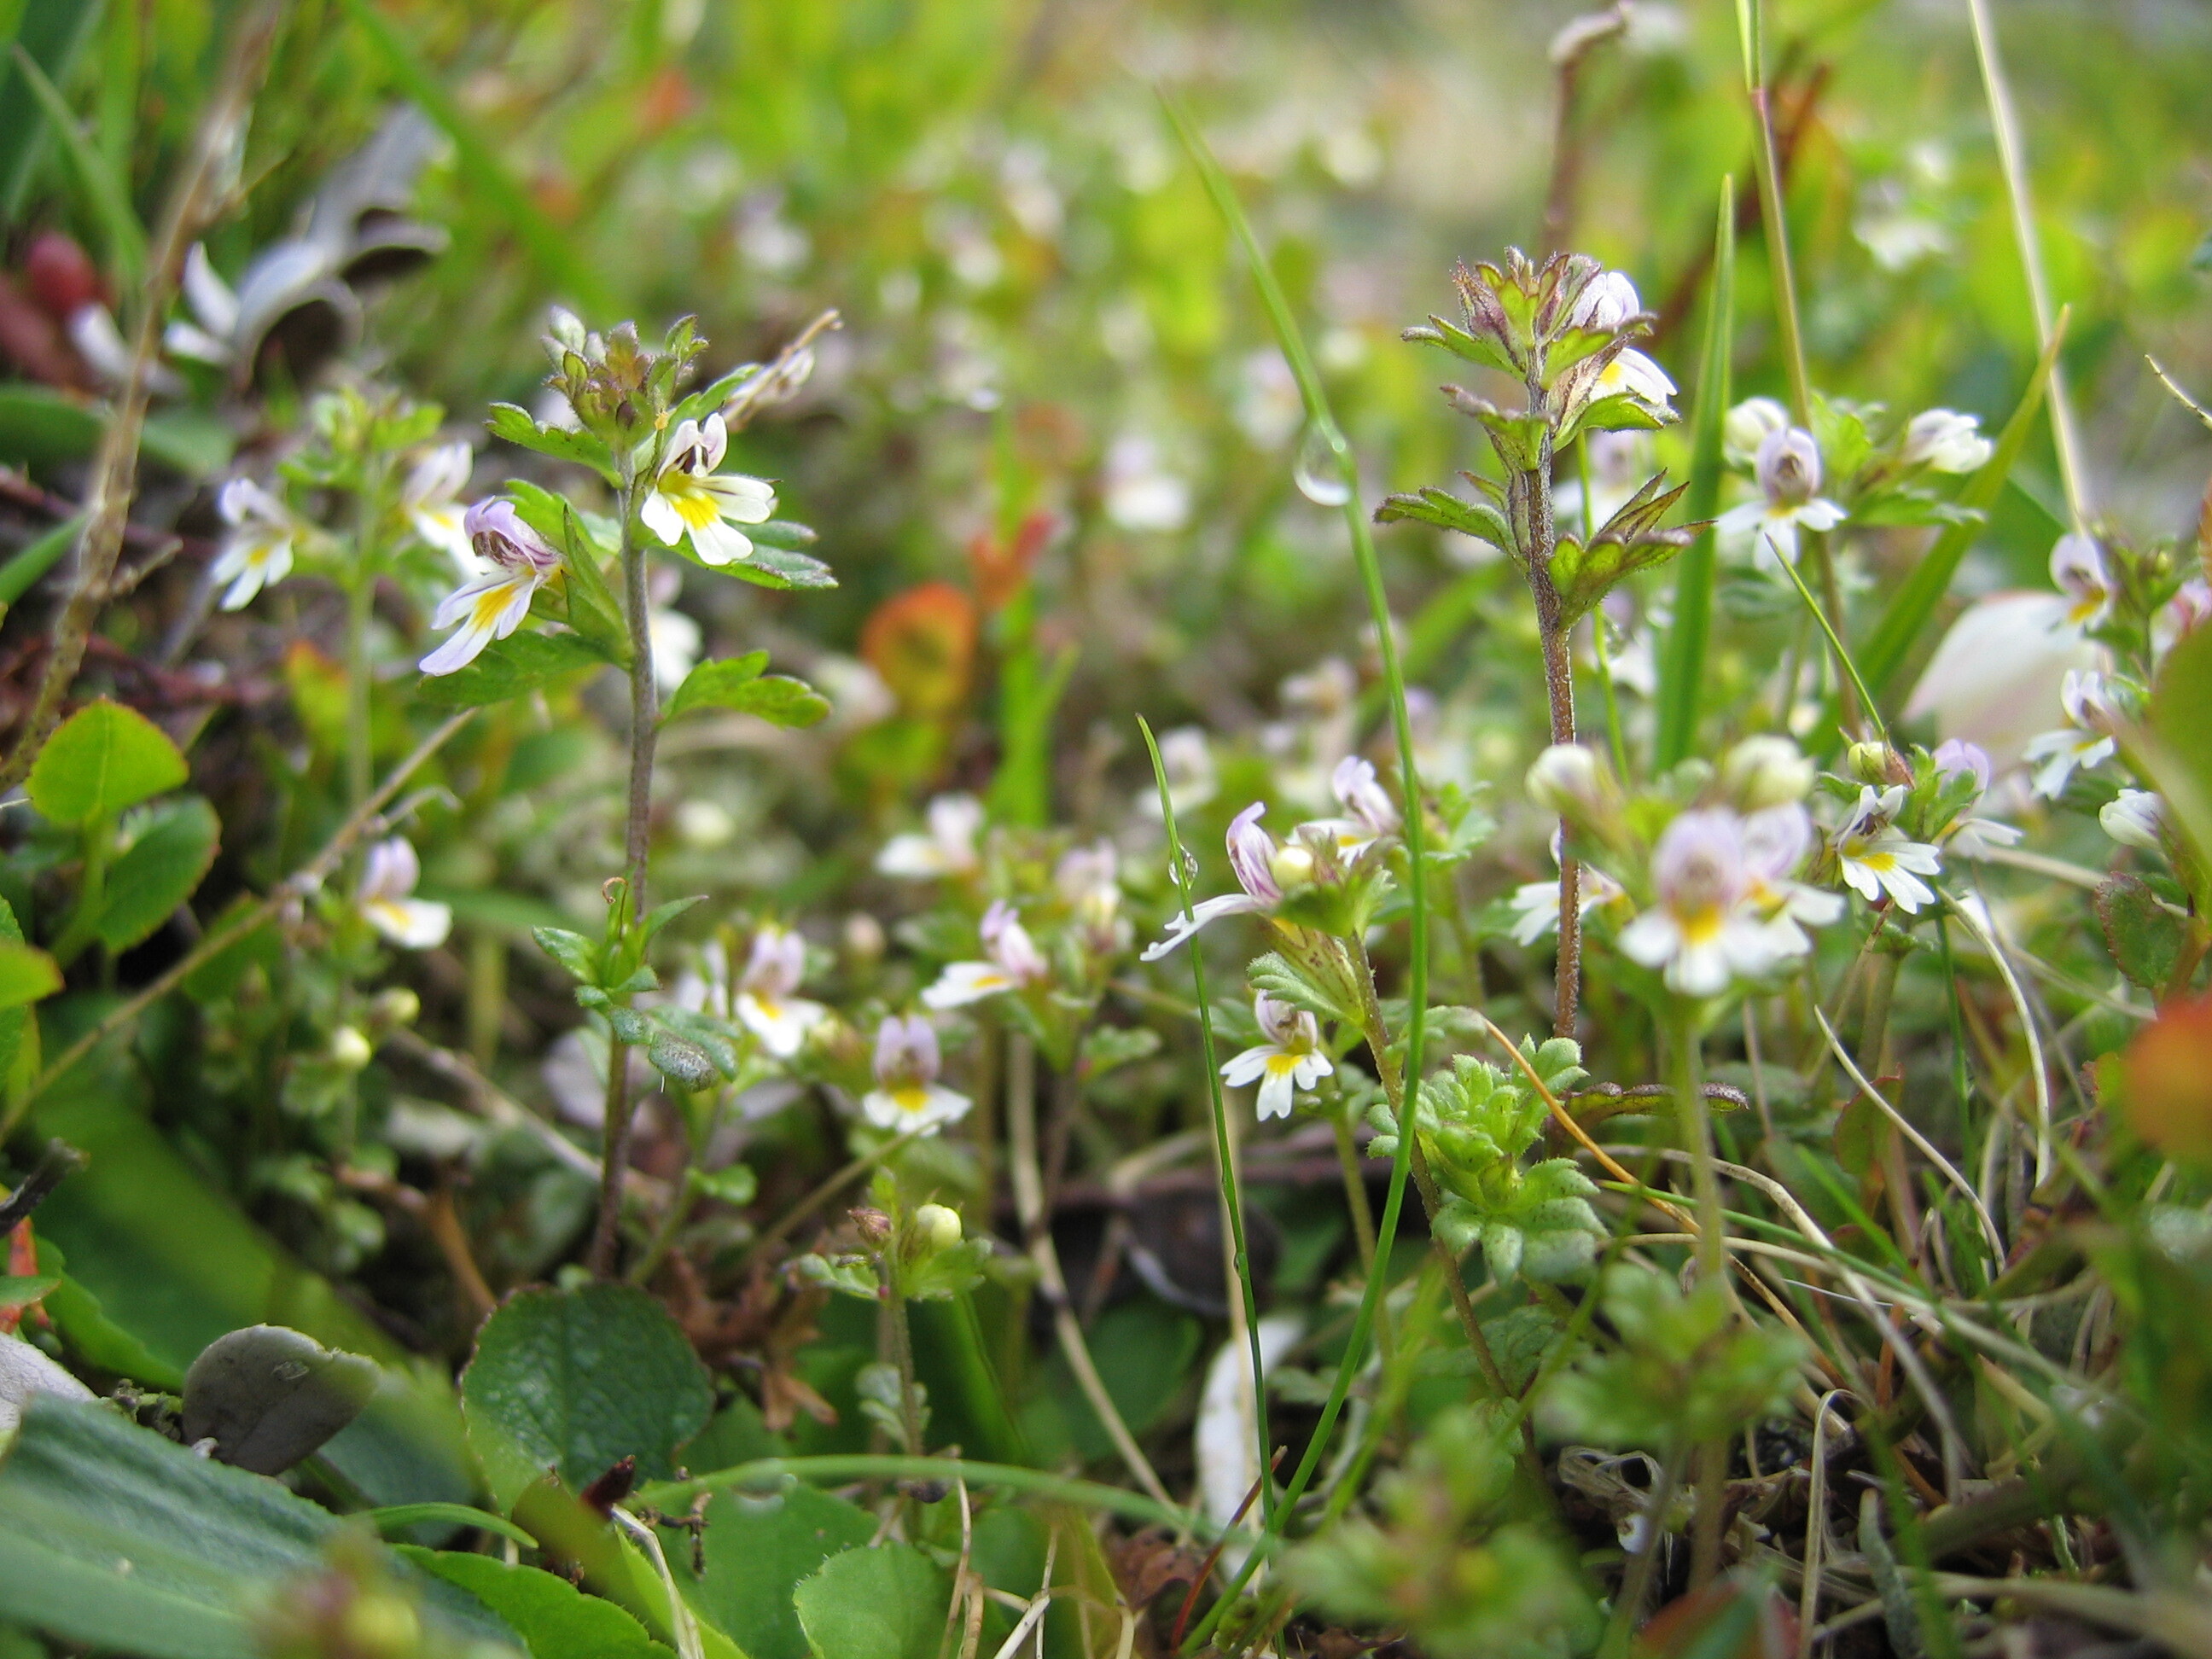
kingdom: Plantae
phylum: Tracheophyta
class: Magnoliopsida
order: Lamiales
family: Orobanchaceae
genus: Euphrasia
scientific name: Euphrasia wettsteinii
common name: Wettstein's eyebright
